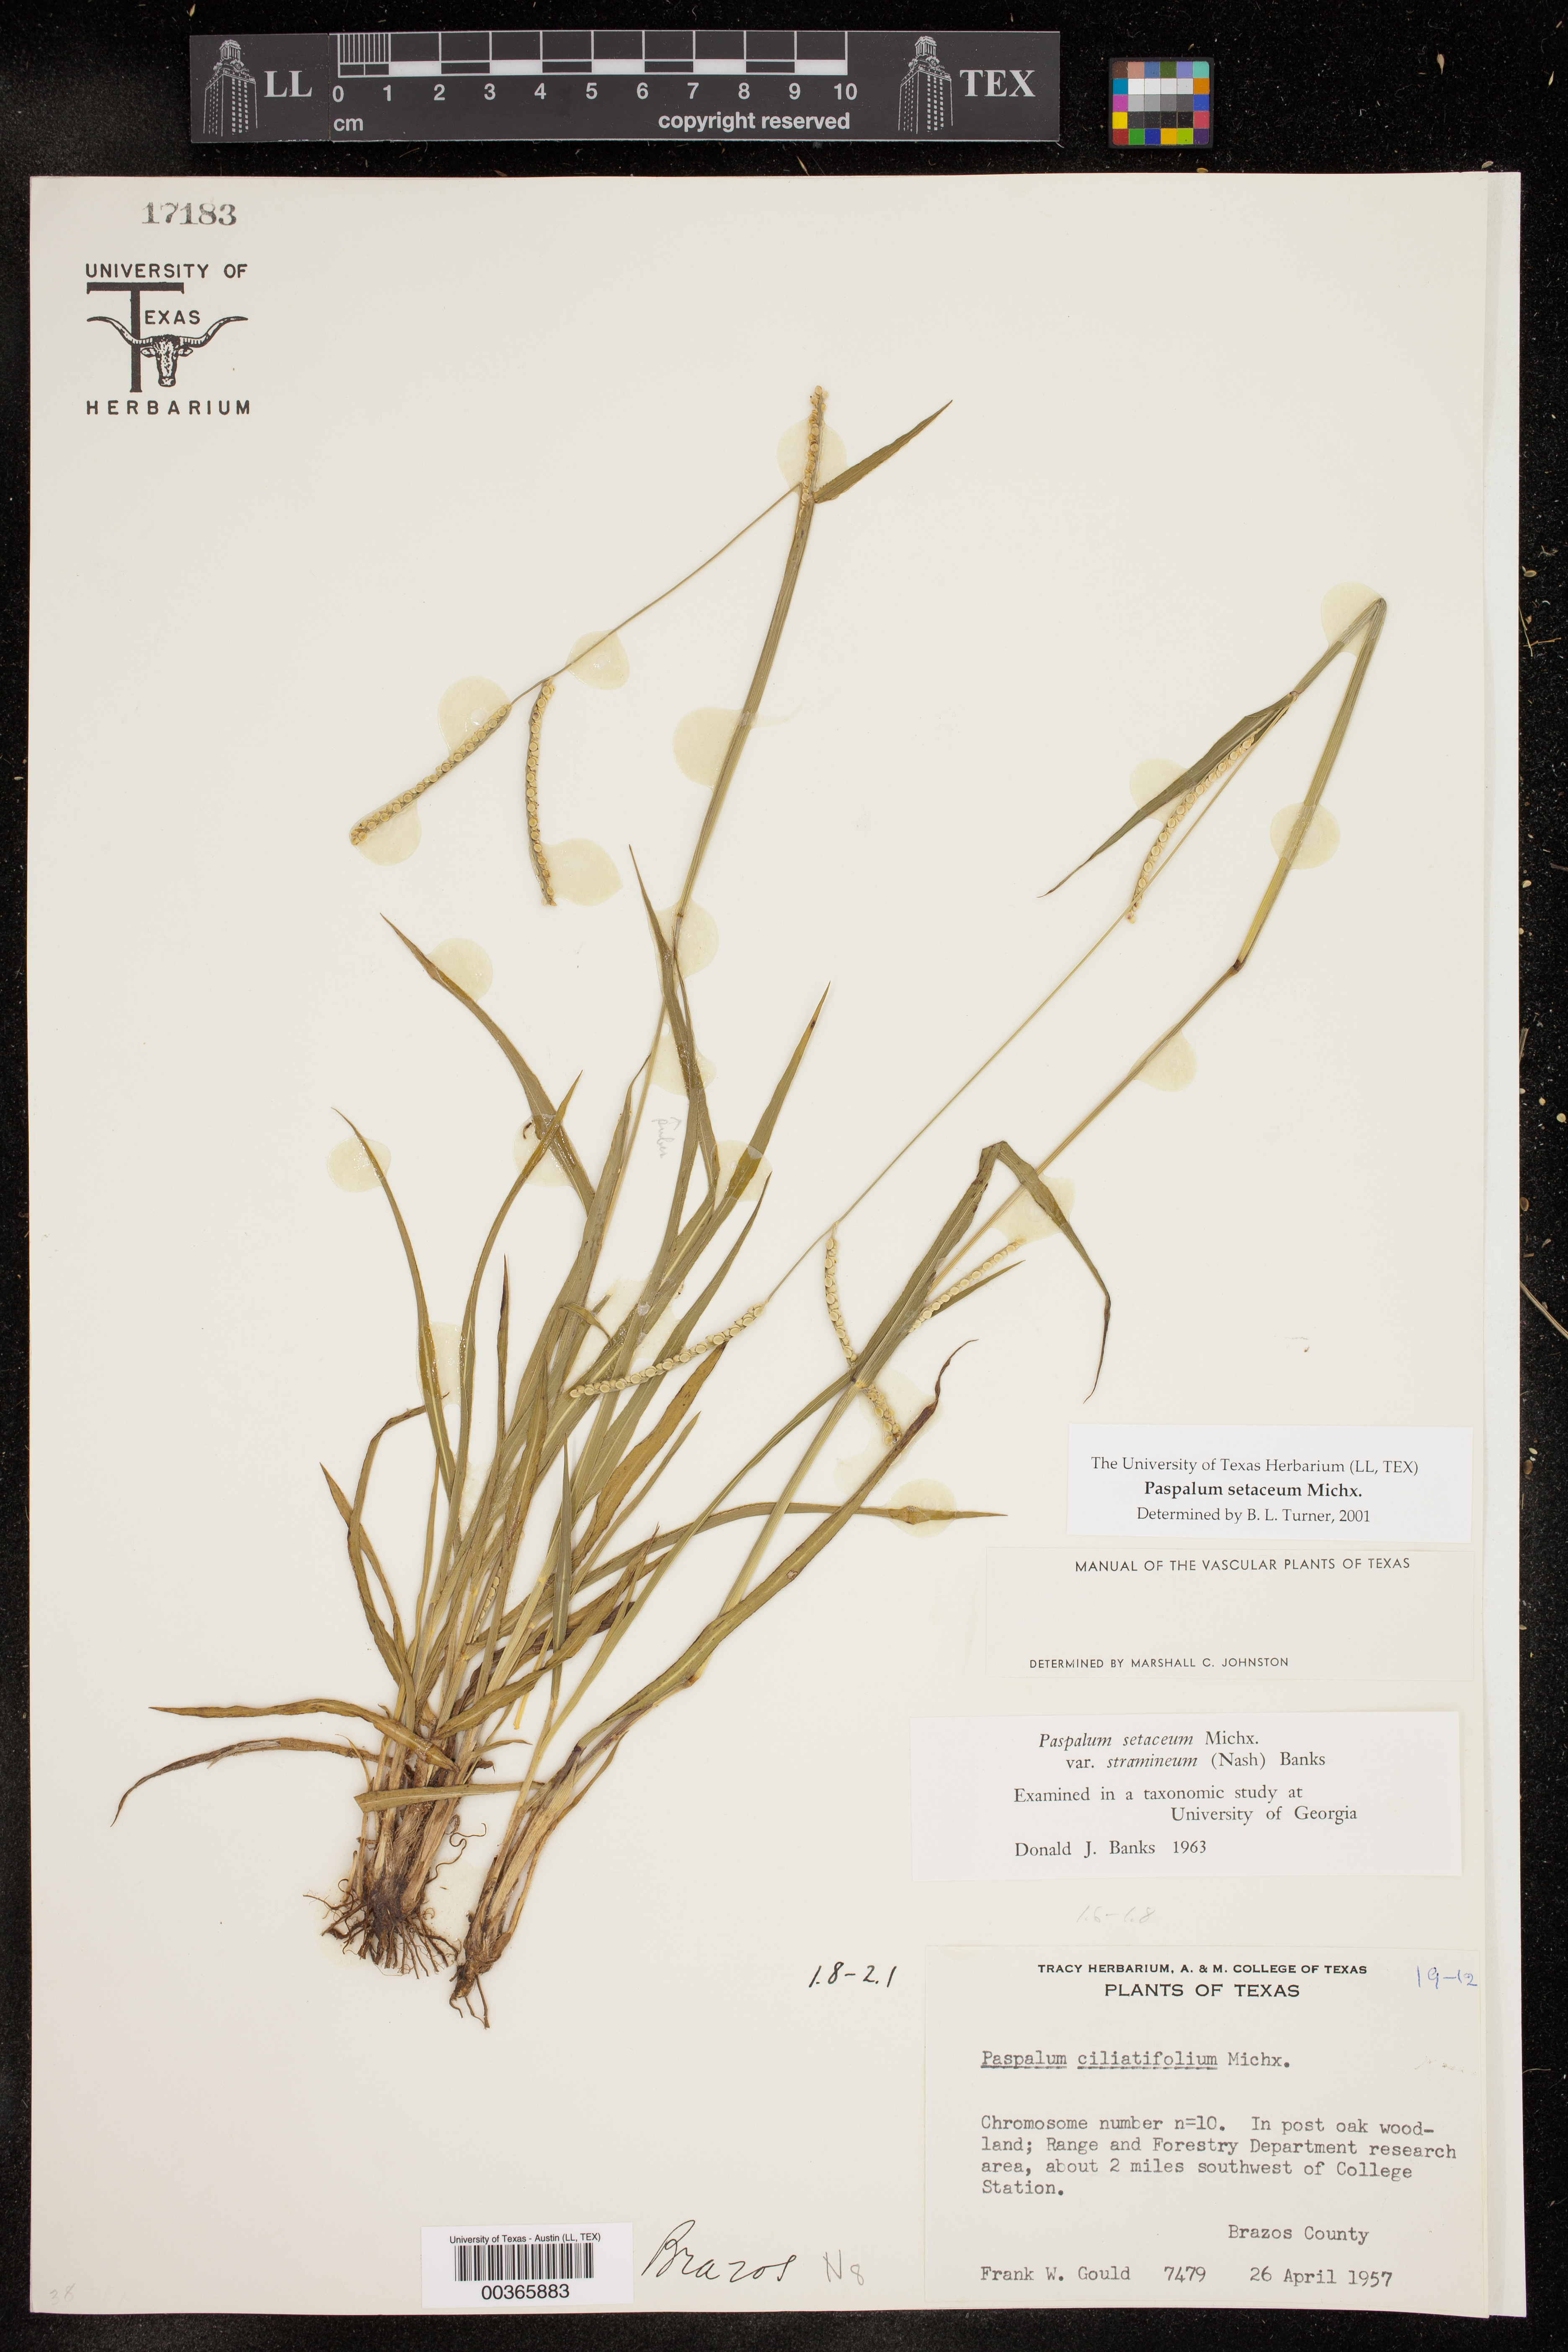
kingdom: Plantae
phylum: Tracheophyta
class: Liliopsida
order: Poales
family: Poaceae
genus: Paspalum
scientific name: Paspalum setaceum
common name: Slender paspalum
